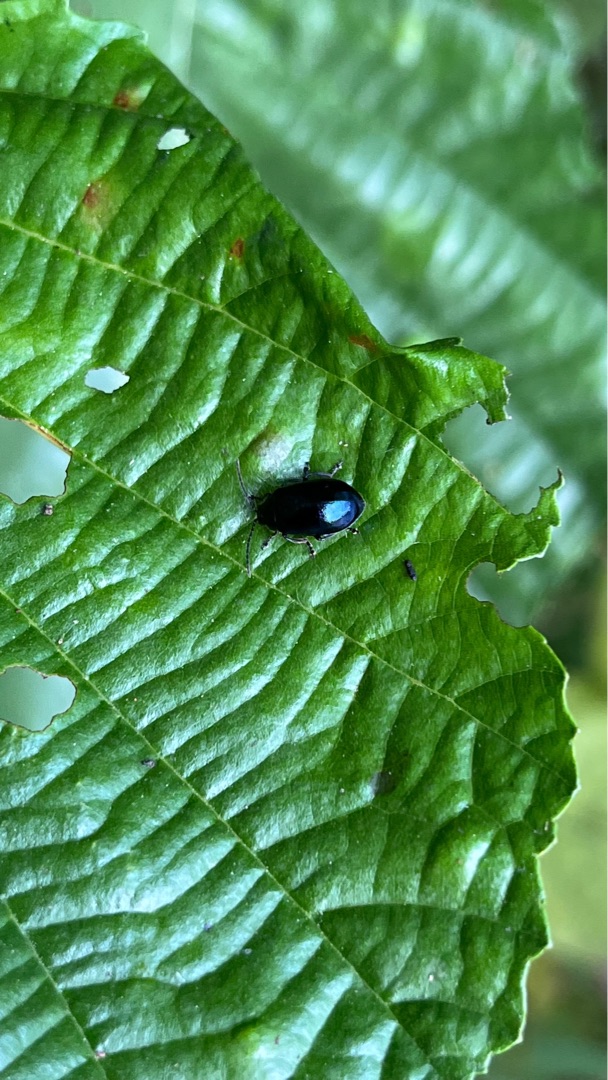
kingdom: Animalia
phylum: Arthropoda
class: Insecta
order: Coleoptera
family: Chrysomelidae
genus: Agelastica
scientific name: Agelastica alni
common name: Ellebladbille
